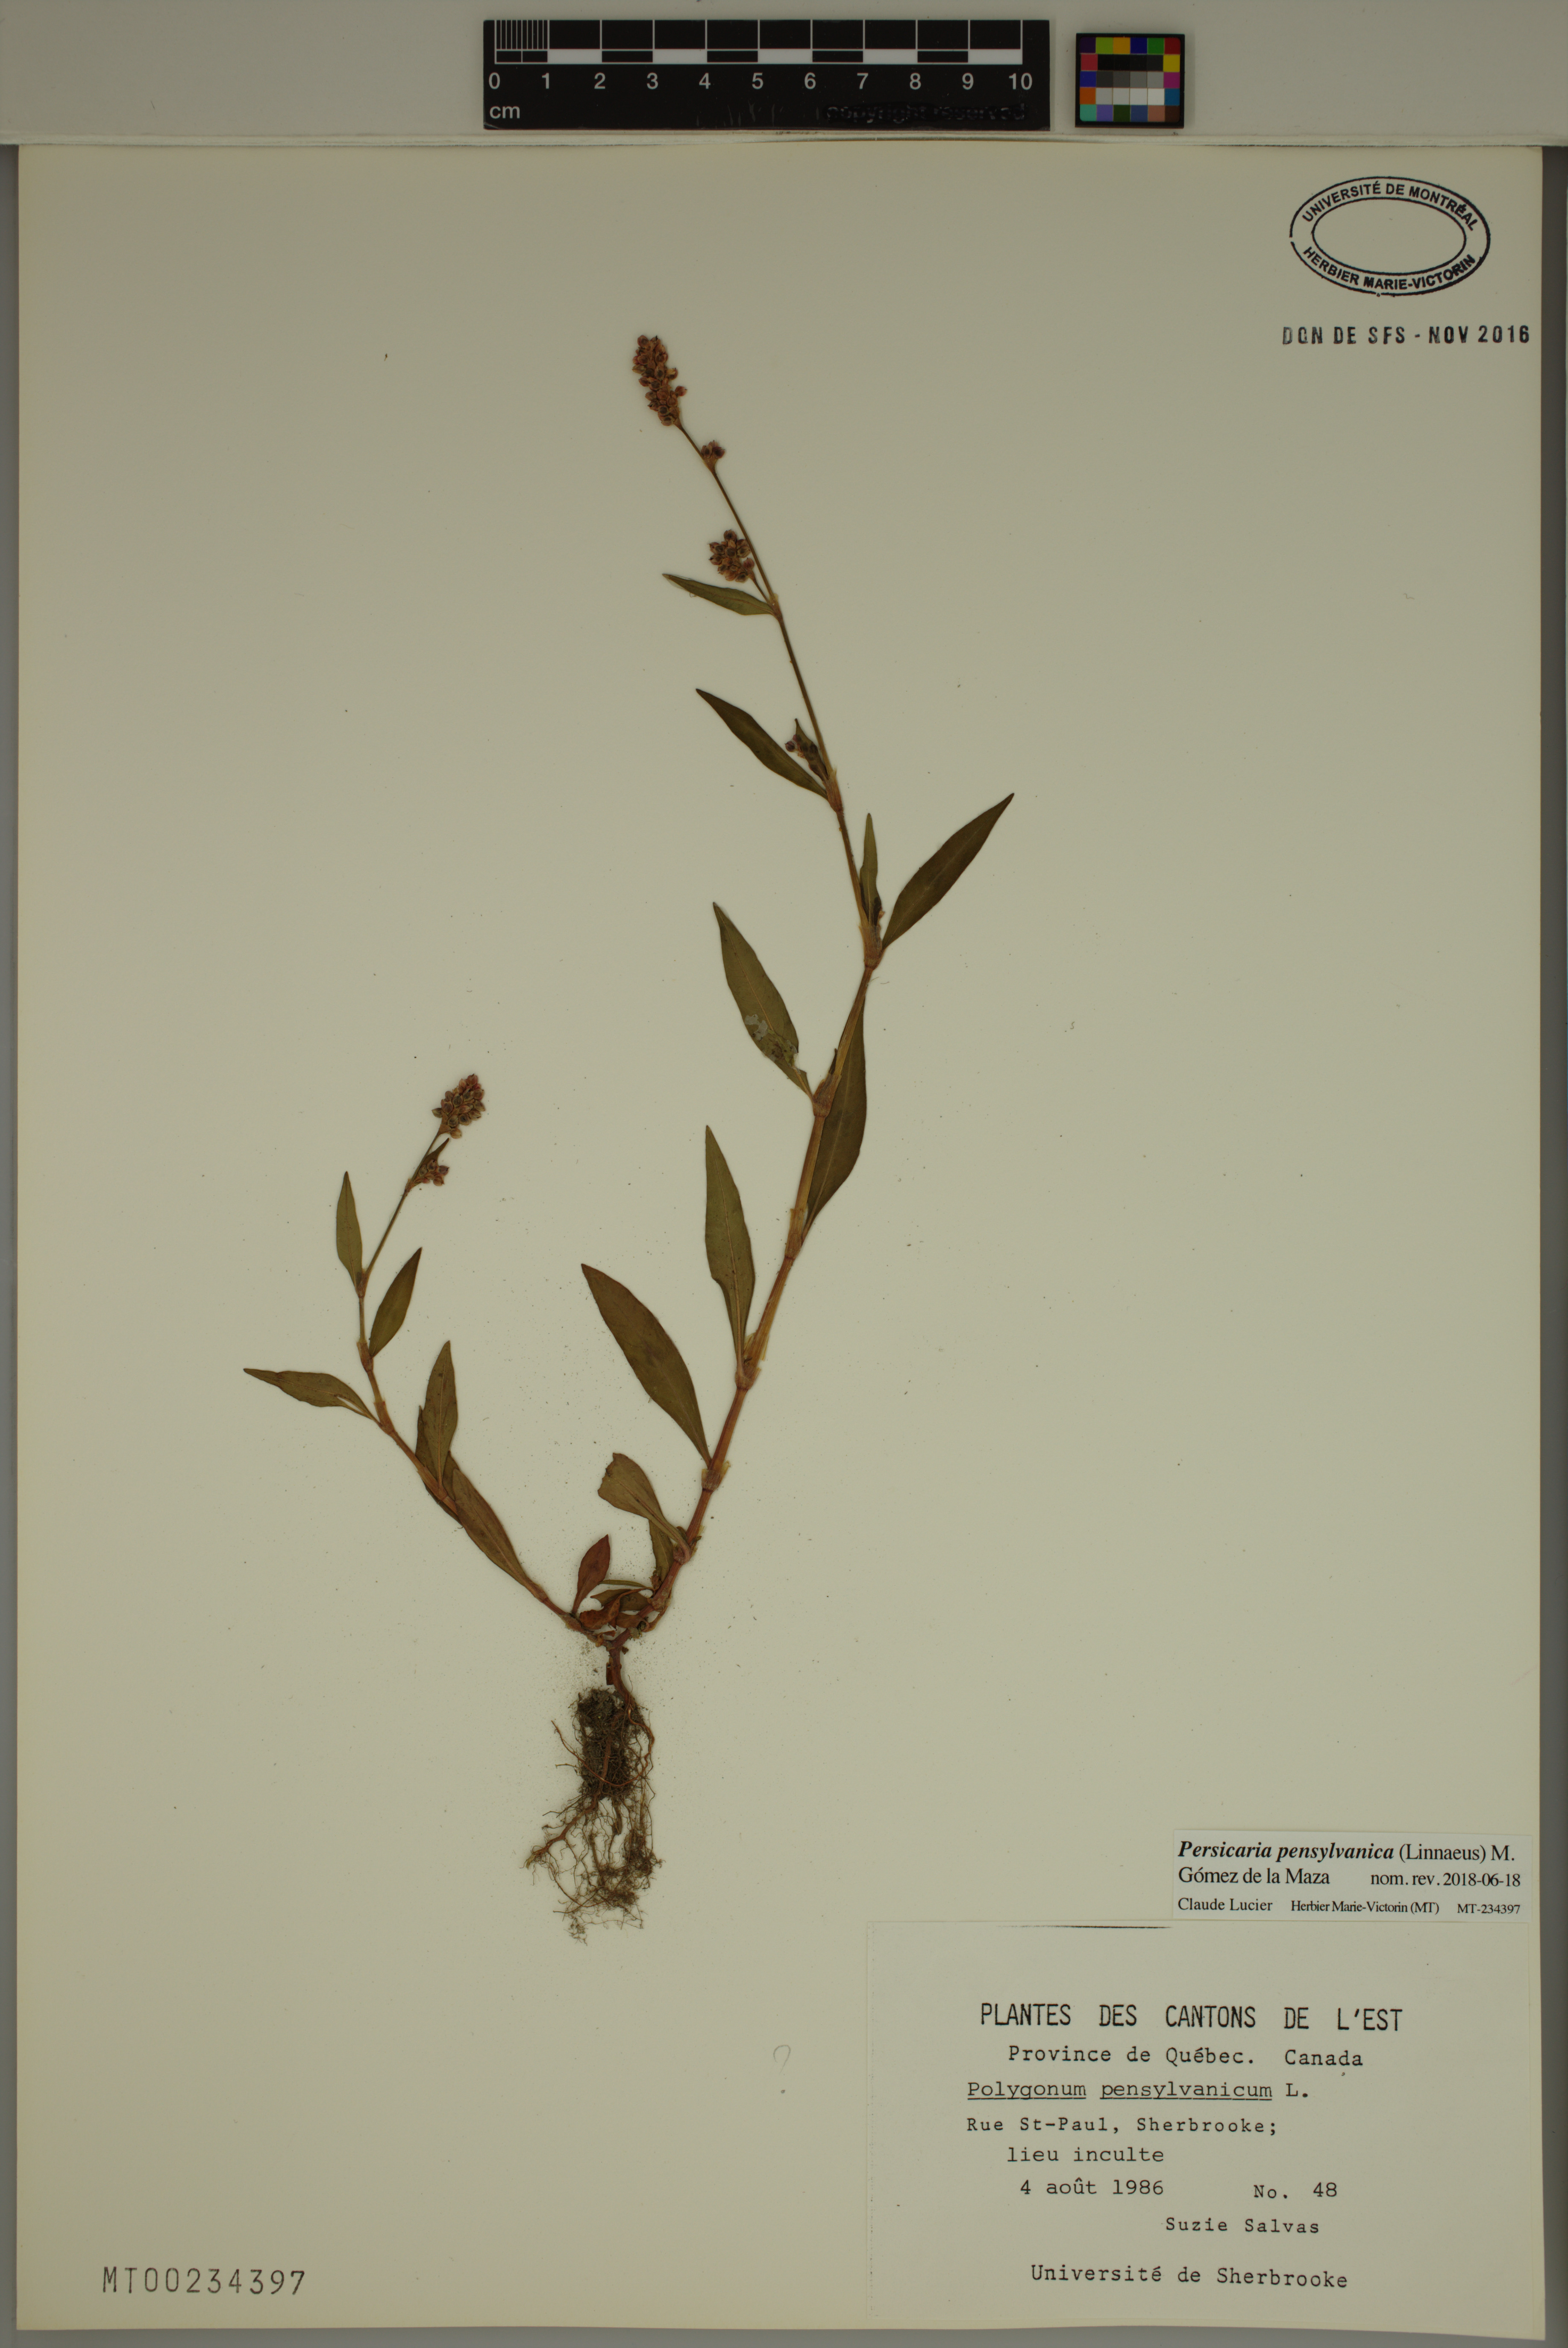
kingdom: Plantae
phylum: Tracheophyta
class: Magnoliopsida
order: Caryophyllales
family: Polygonaceae
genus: Persicaria
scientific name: Persicaria pensylvanica
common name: Pinkweed
